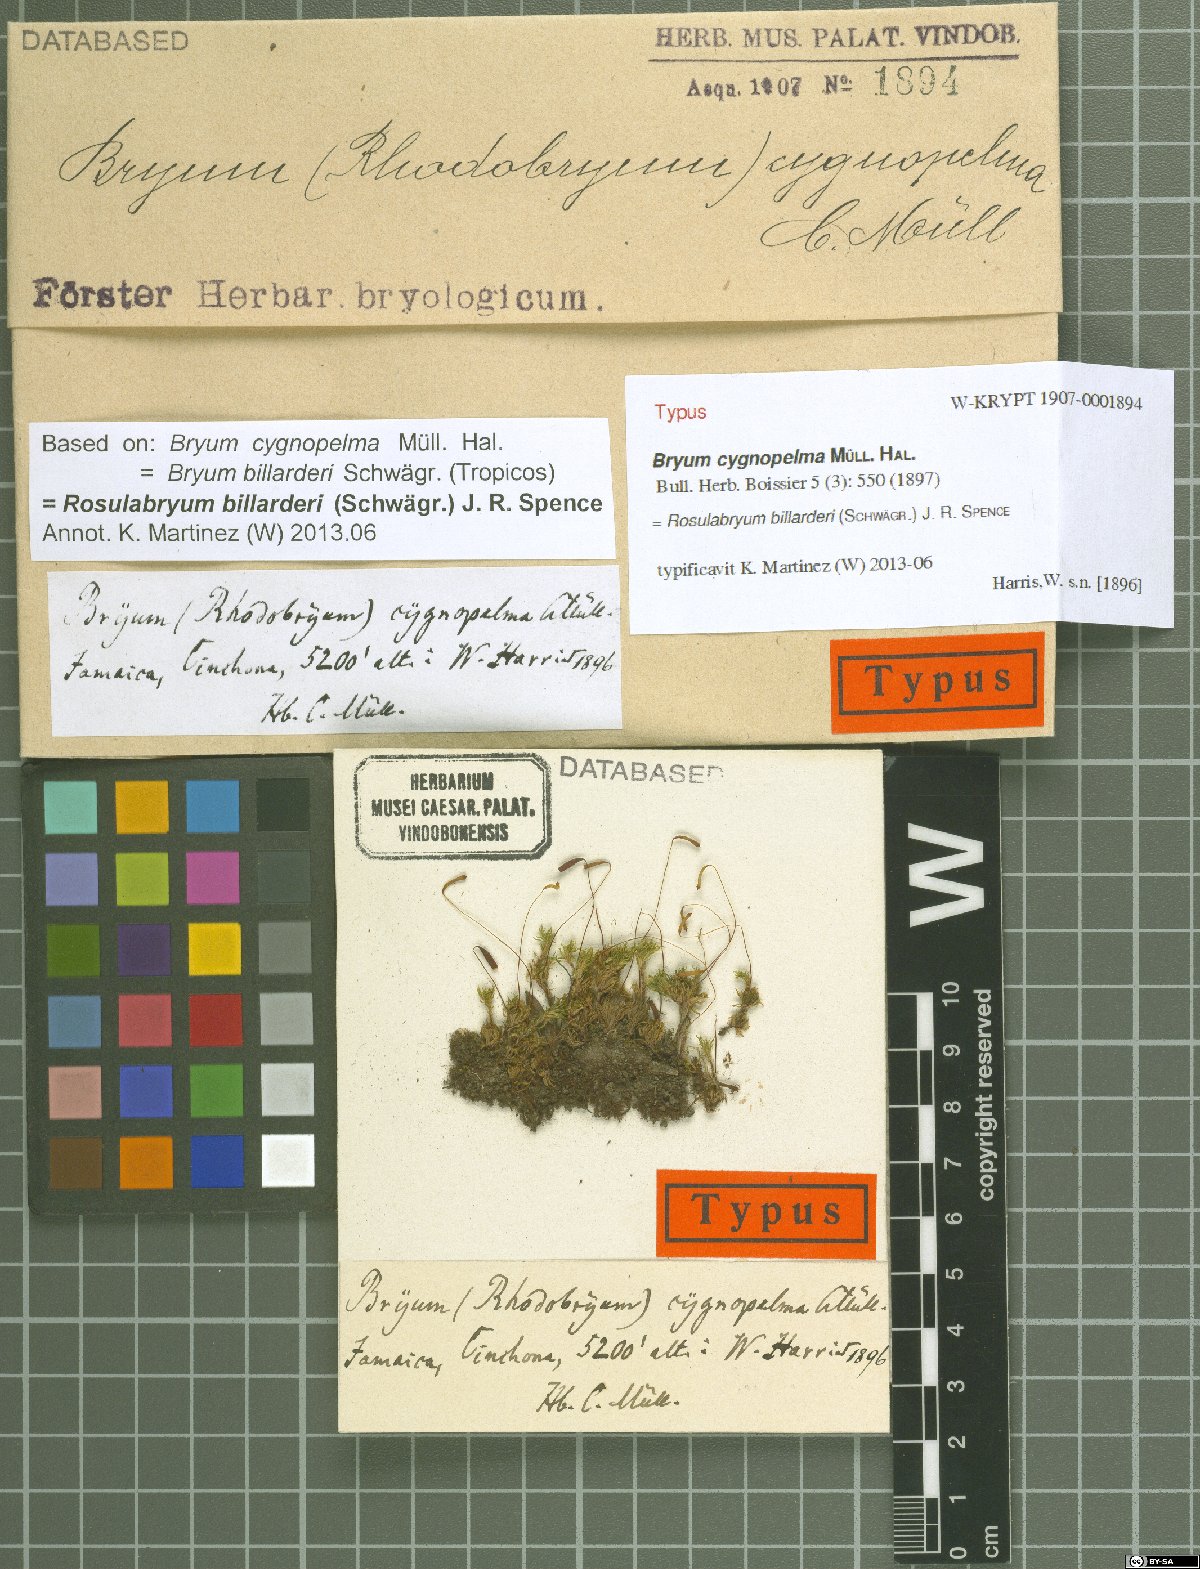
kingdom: Plantae
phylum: Bryophyta
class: Bryopsida
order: Bryales
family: Bryaceae
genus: Rosulabryum
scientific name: Rosulabryum billarderii
